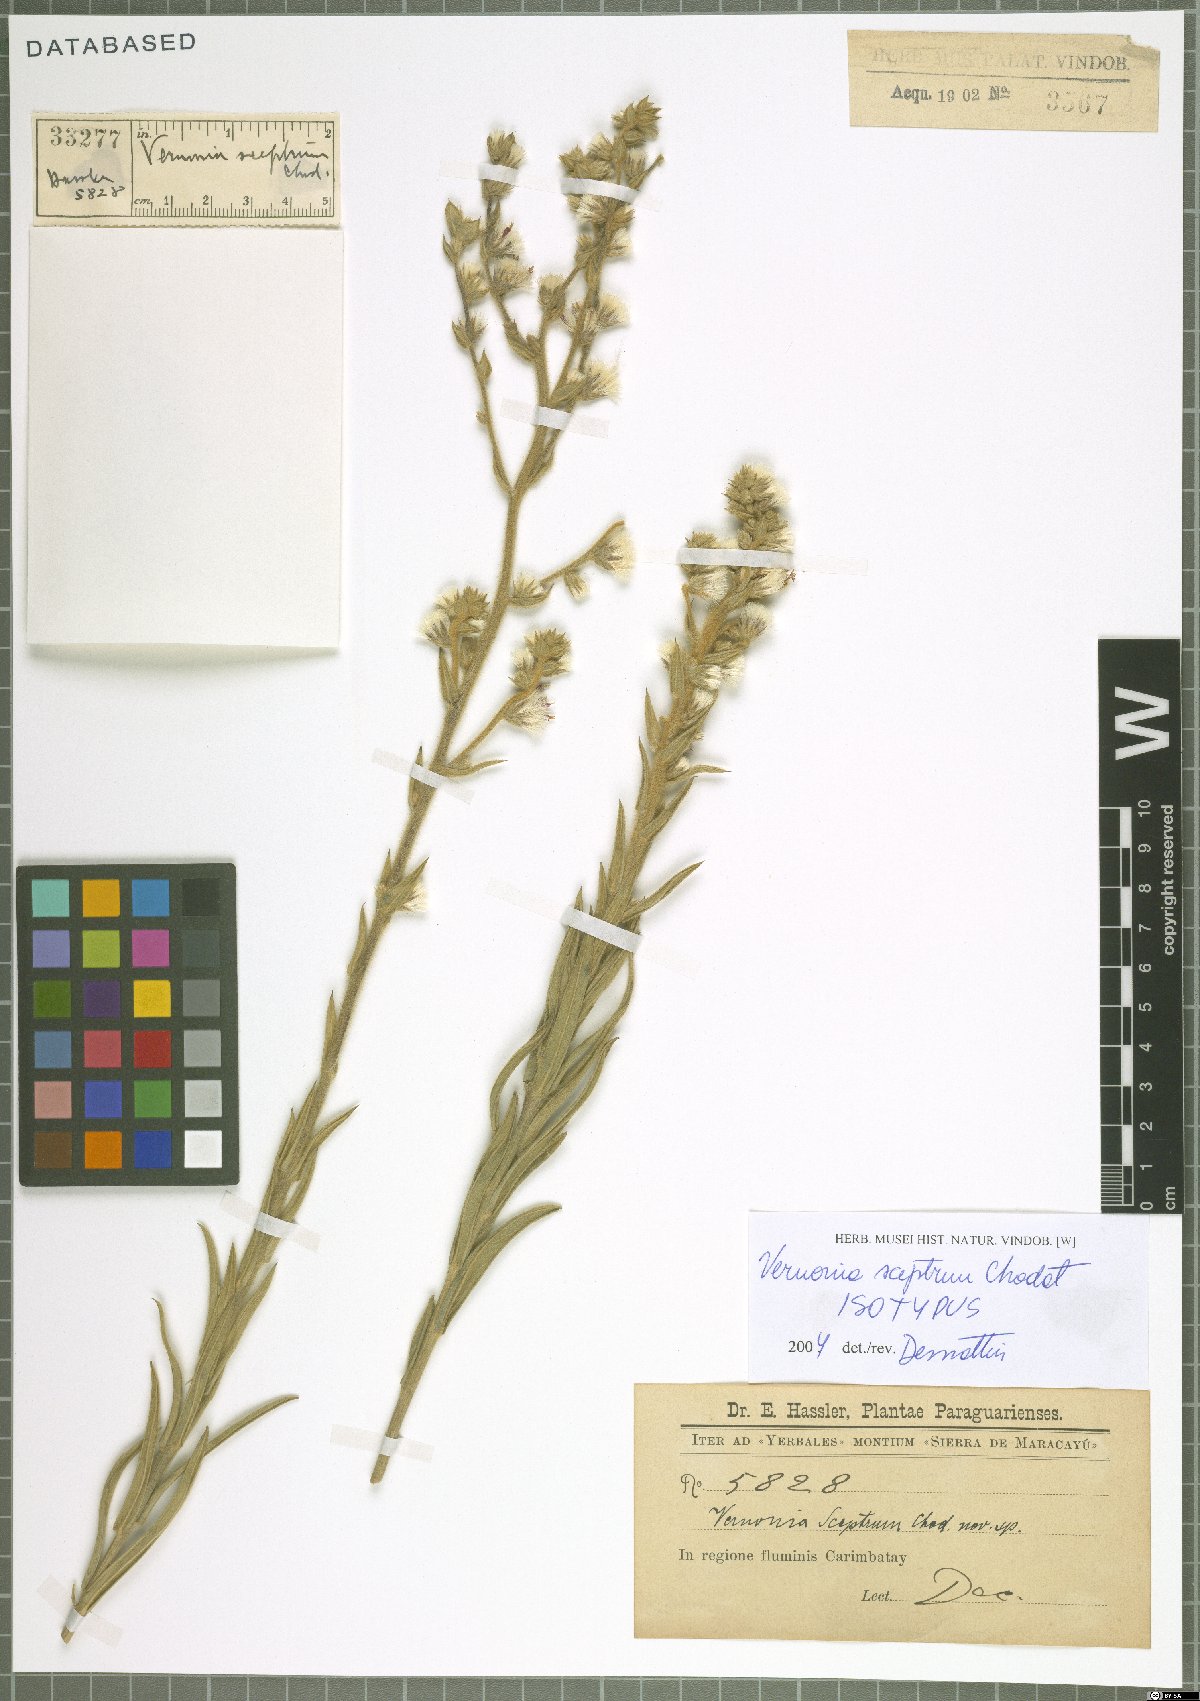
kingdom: Plantae
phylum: Tracheophyta
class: Magnoliopsida
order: Asterales
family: Asteraceae
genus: Chrysolaena
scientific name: Chrysolaena sceptrum
